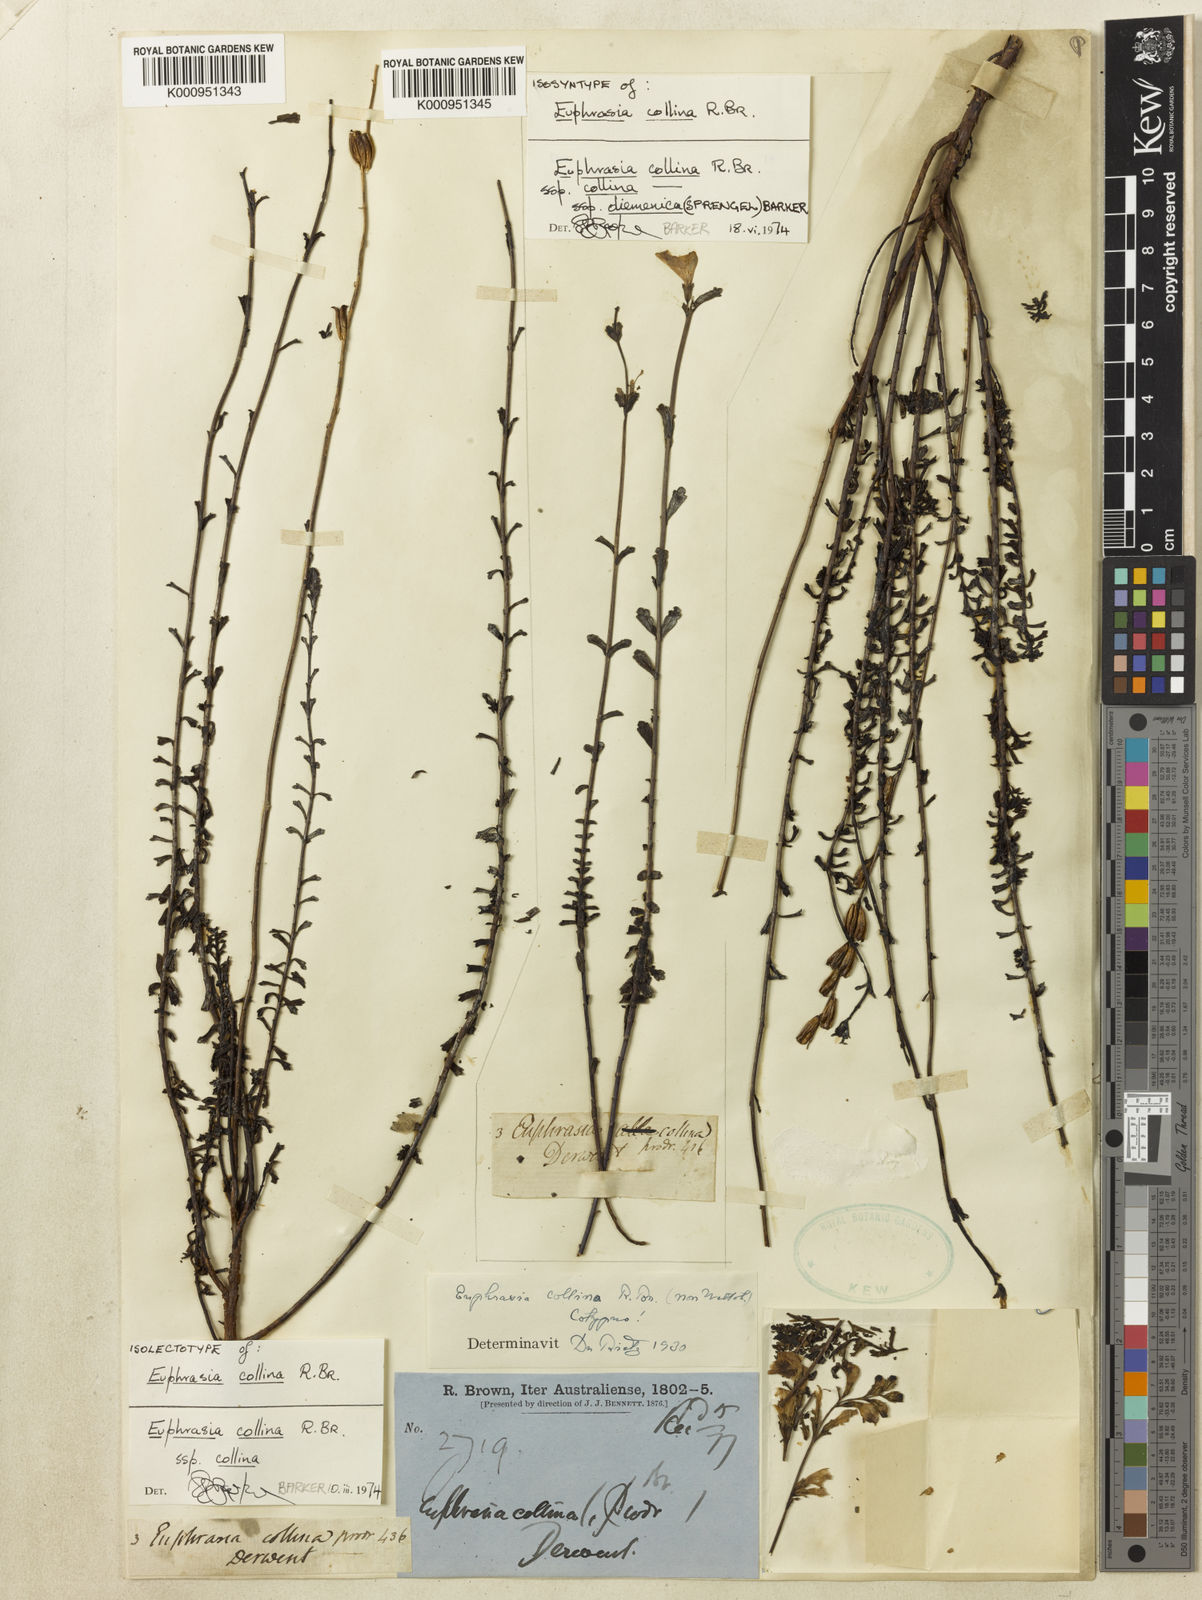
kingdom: Plantae
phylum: Tracheophyta
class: Magnoliopsida
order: Lamiales
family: Orobanchaceae
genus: Euphrasia
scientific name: Euphrasia collina
